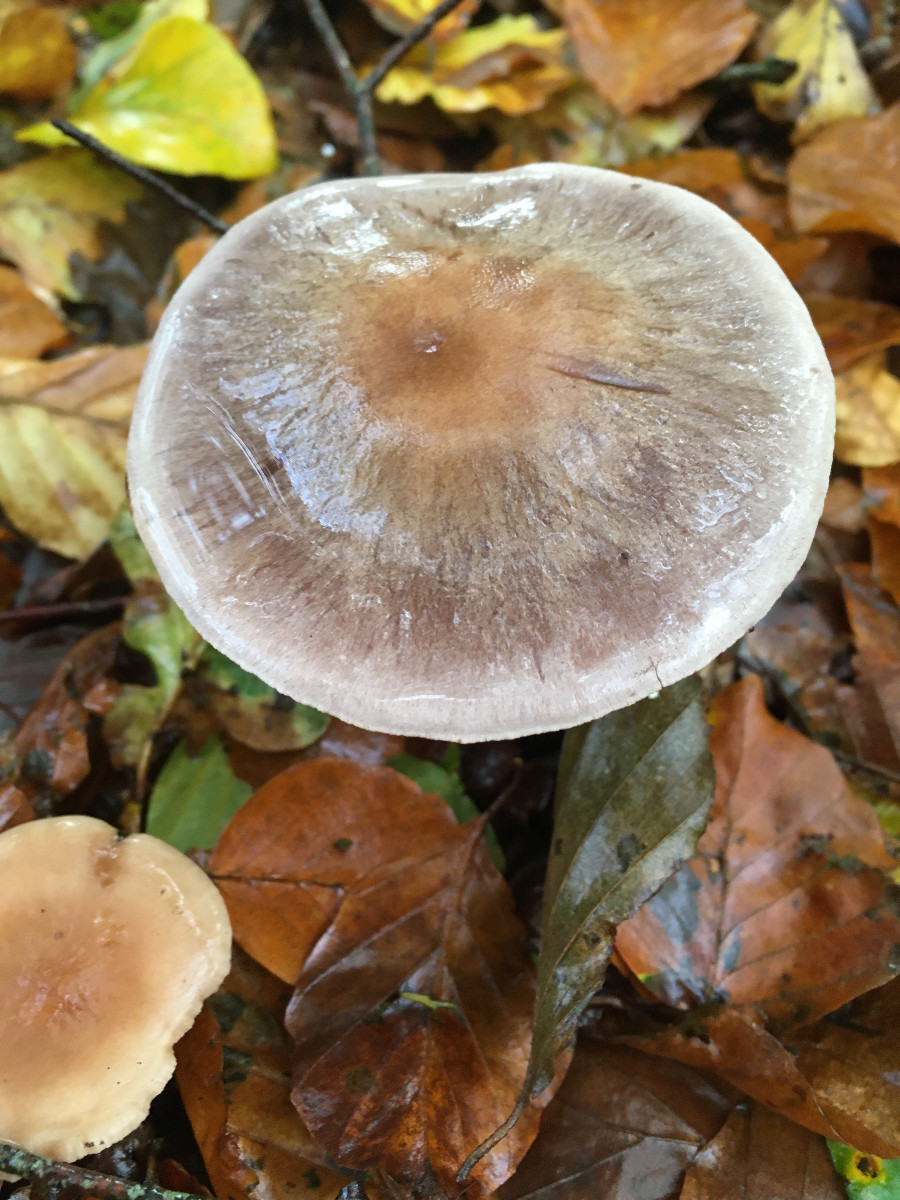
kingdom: Fungi
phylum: Basidiomycota
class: Agaricomycetes
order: Agaricales
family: Cortinariaceae
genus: Cortinarius
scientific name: Cortinarius
